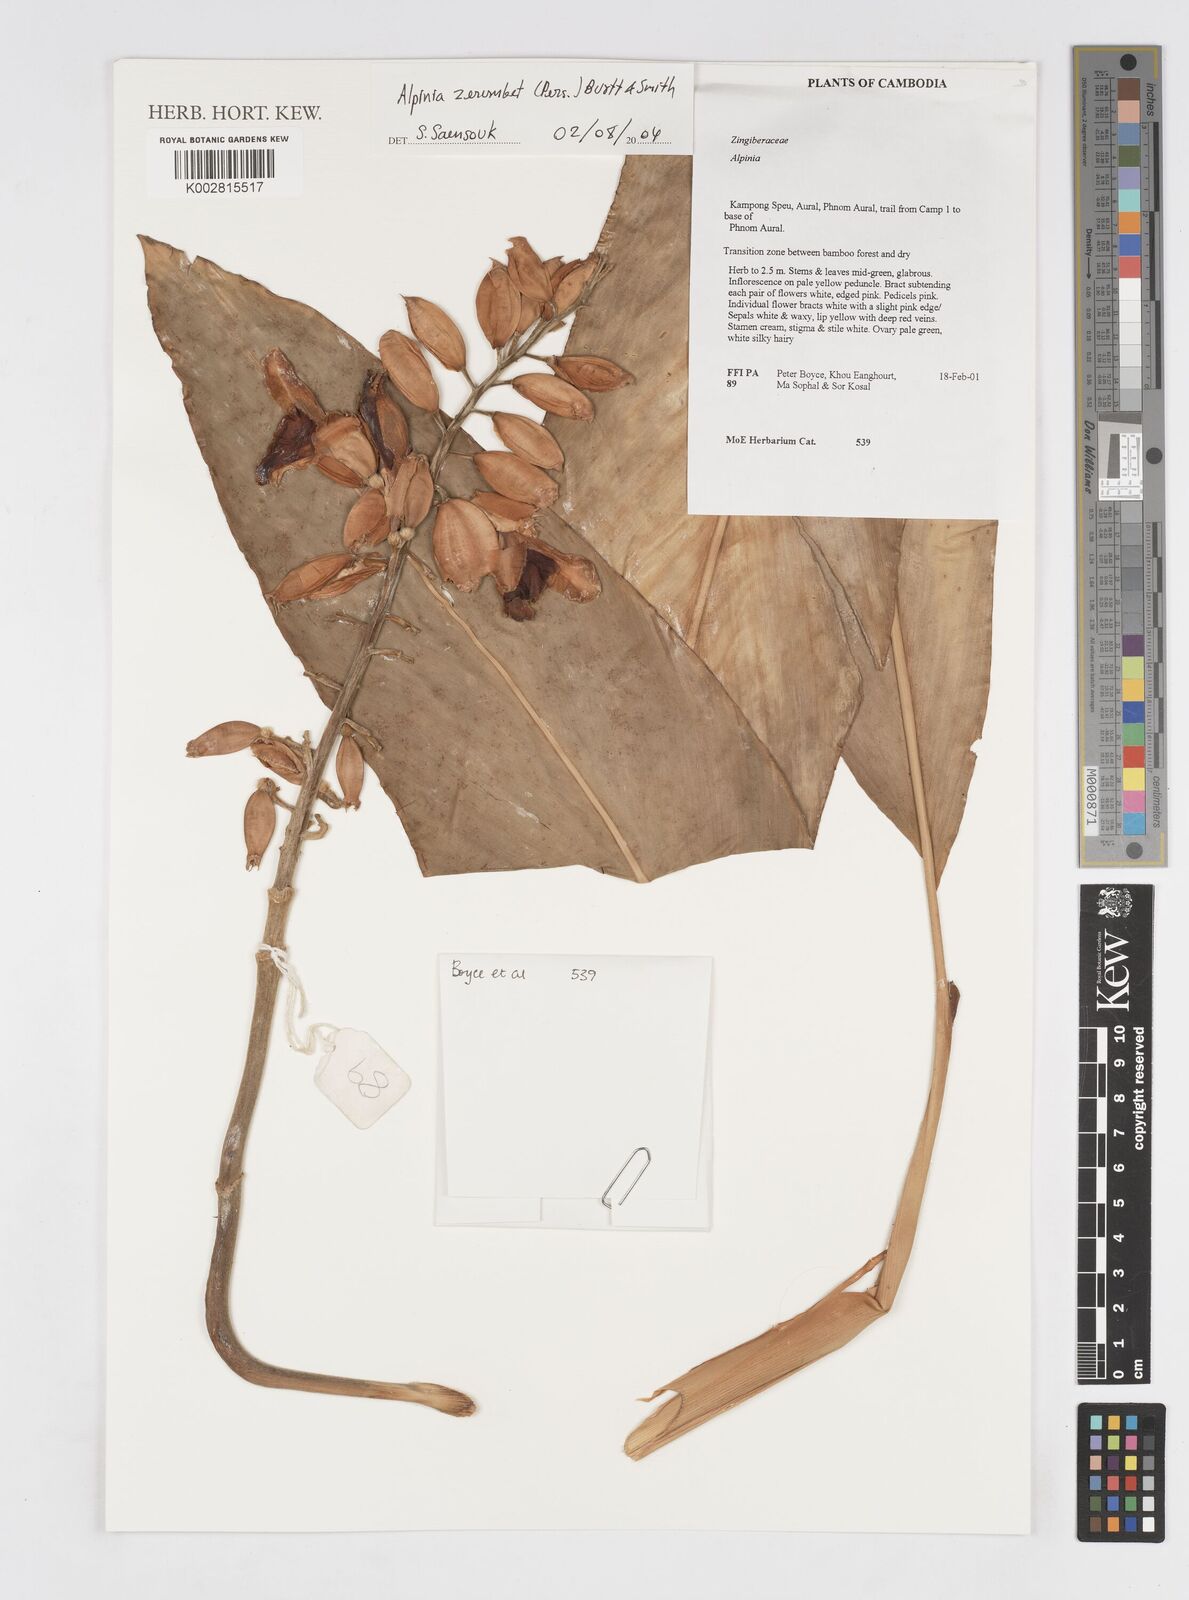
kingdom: Plantae
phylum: Tracheophyta
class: Liliopsida
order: Zingiberales
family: Zingiberaceae
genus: Alpinia
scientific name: Alpinia zerumbet
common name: Shellplant
